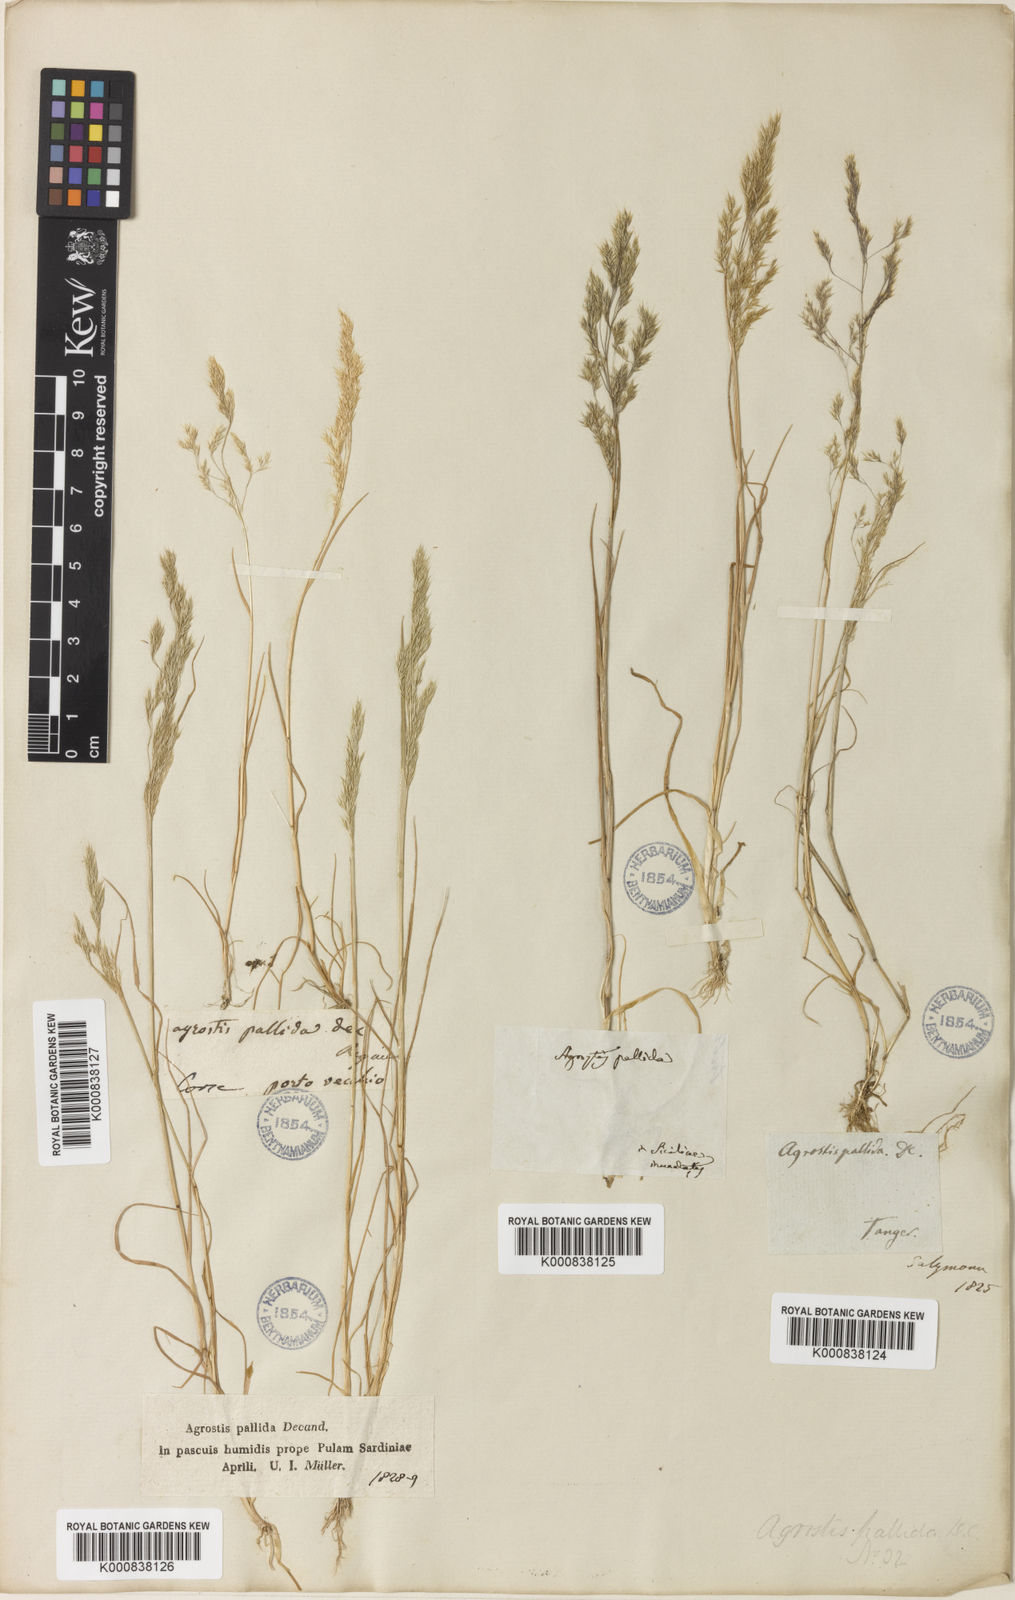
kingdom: Plantae
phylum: Tracheophyta
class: Liliopsida
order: Poales
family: Poaceae
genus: Agrostis
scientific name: Agrostis pourretii
